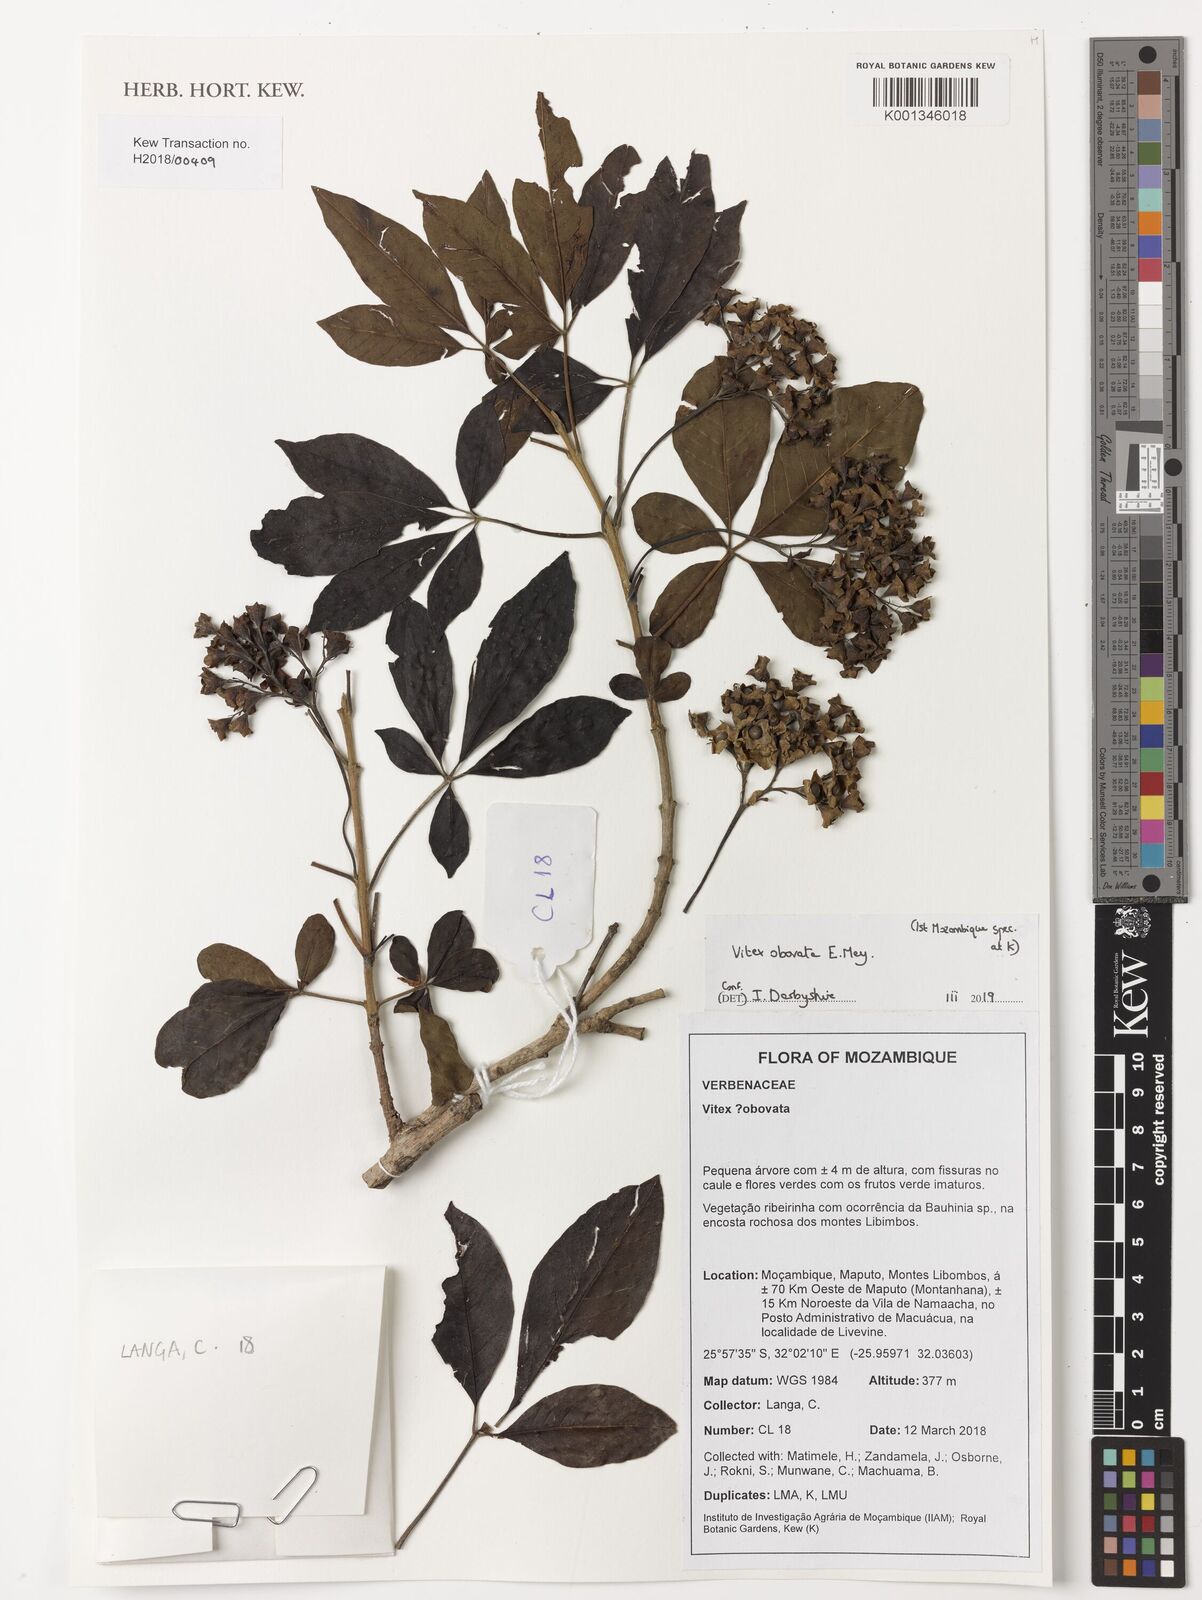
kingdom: Plantae
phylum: Tracheophyta
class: Magnoliopsida
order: Lamiales
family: Lamiaceae
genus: Vitex
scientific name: Vitex obovata
